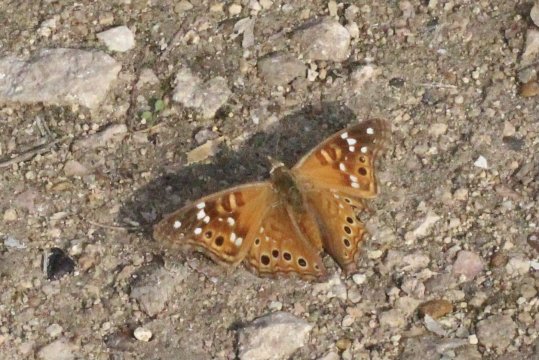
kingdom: Animalia
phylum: Arthropoda
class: Insecta
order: Lepidoptera
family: Nymphalidae
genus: Asterocampa
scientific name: Asterocampa leilia
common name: Empress Leilia
